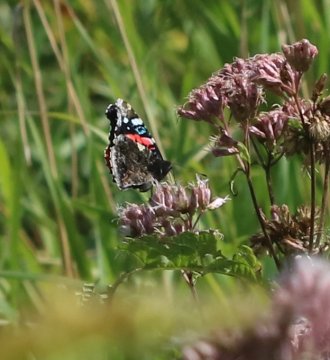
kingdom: Animalia
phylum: Arthropoda
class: Insecta
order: Lepidoptera
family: Nymphalidae
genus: Vanessa
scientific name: Vanessa atalanta
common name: Red Admiral
